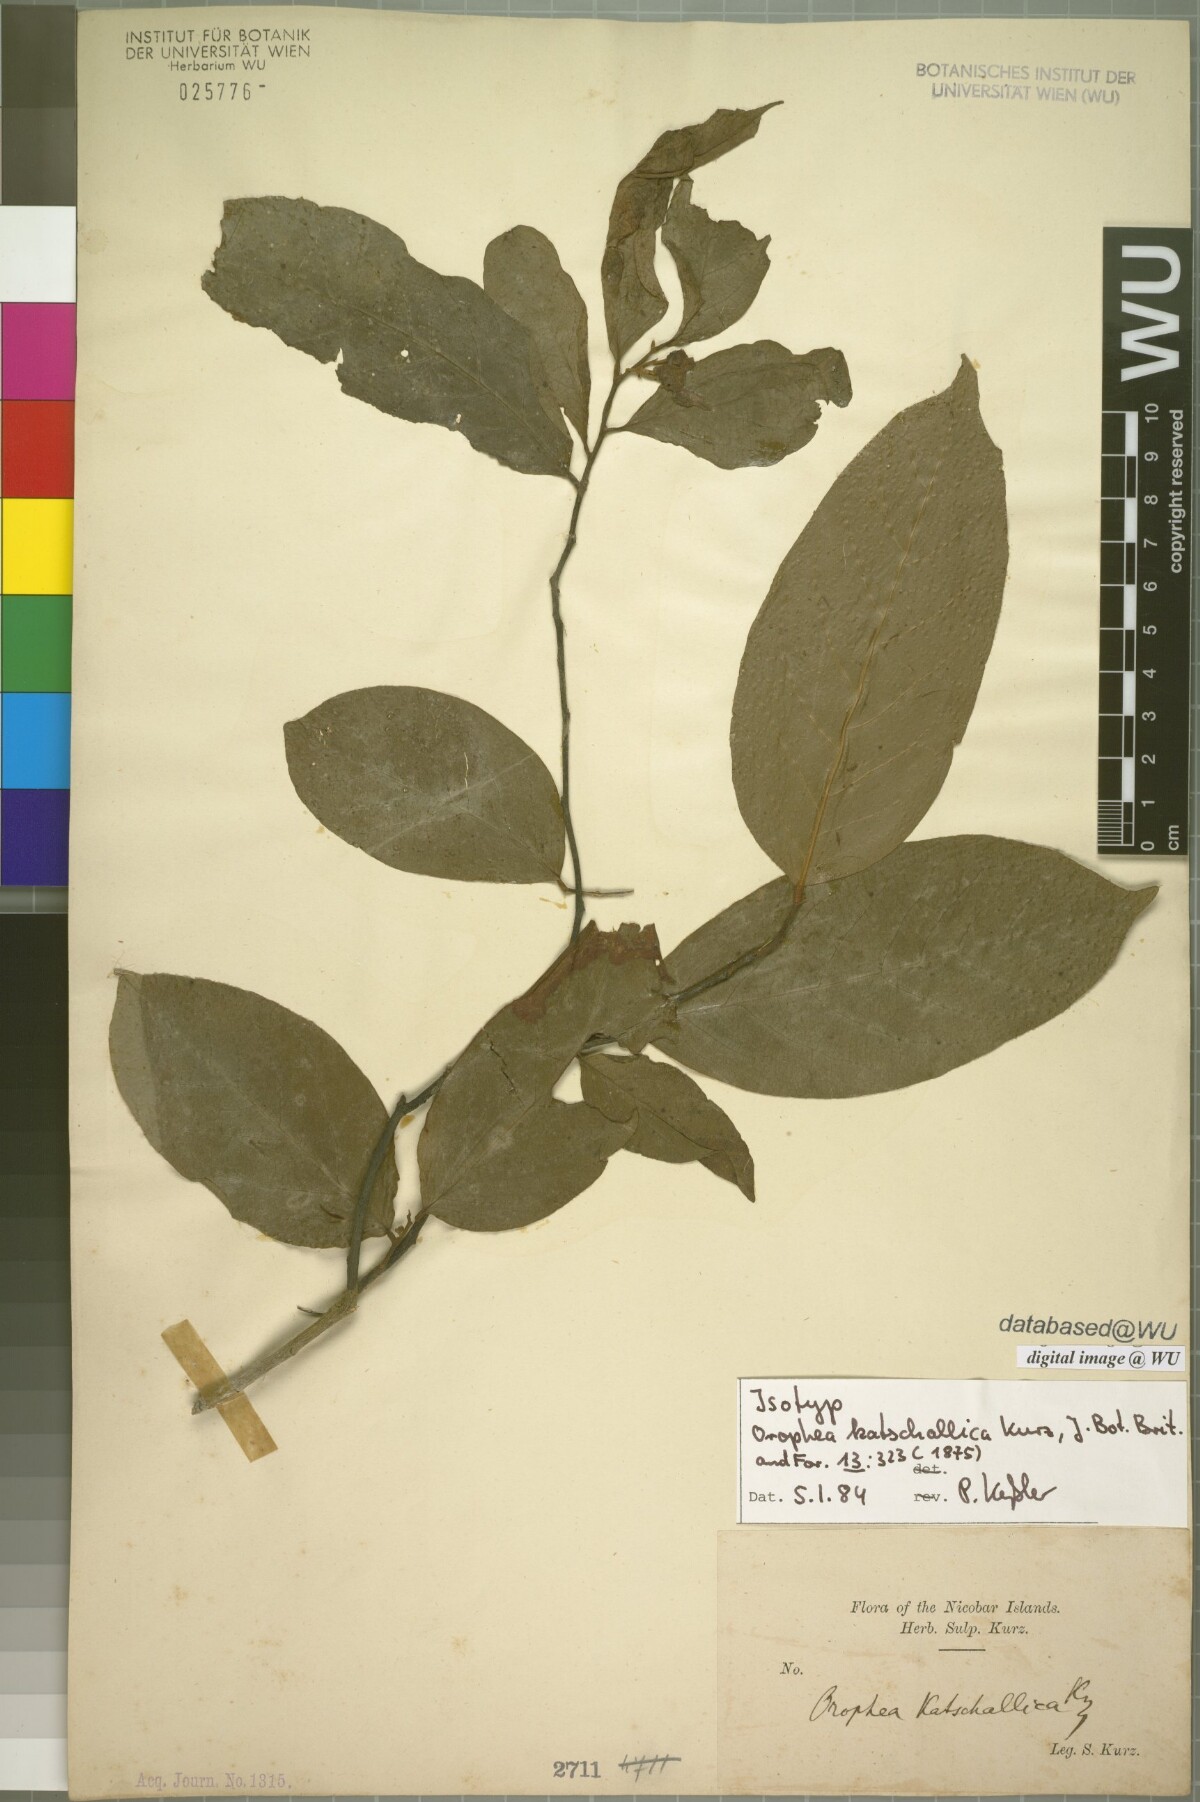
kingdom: Plantae
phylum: Tracheophyta
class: Magnoliopsida
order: Magnoliales
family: Annonaceae
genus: Orophea
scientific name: Orophea katschallica
